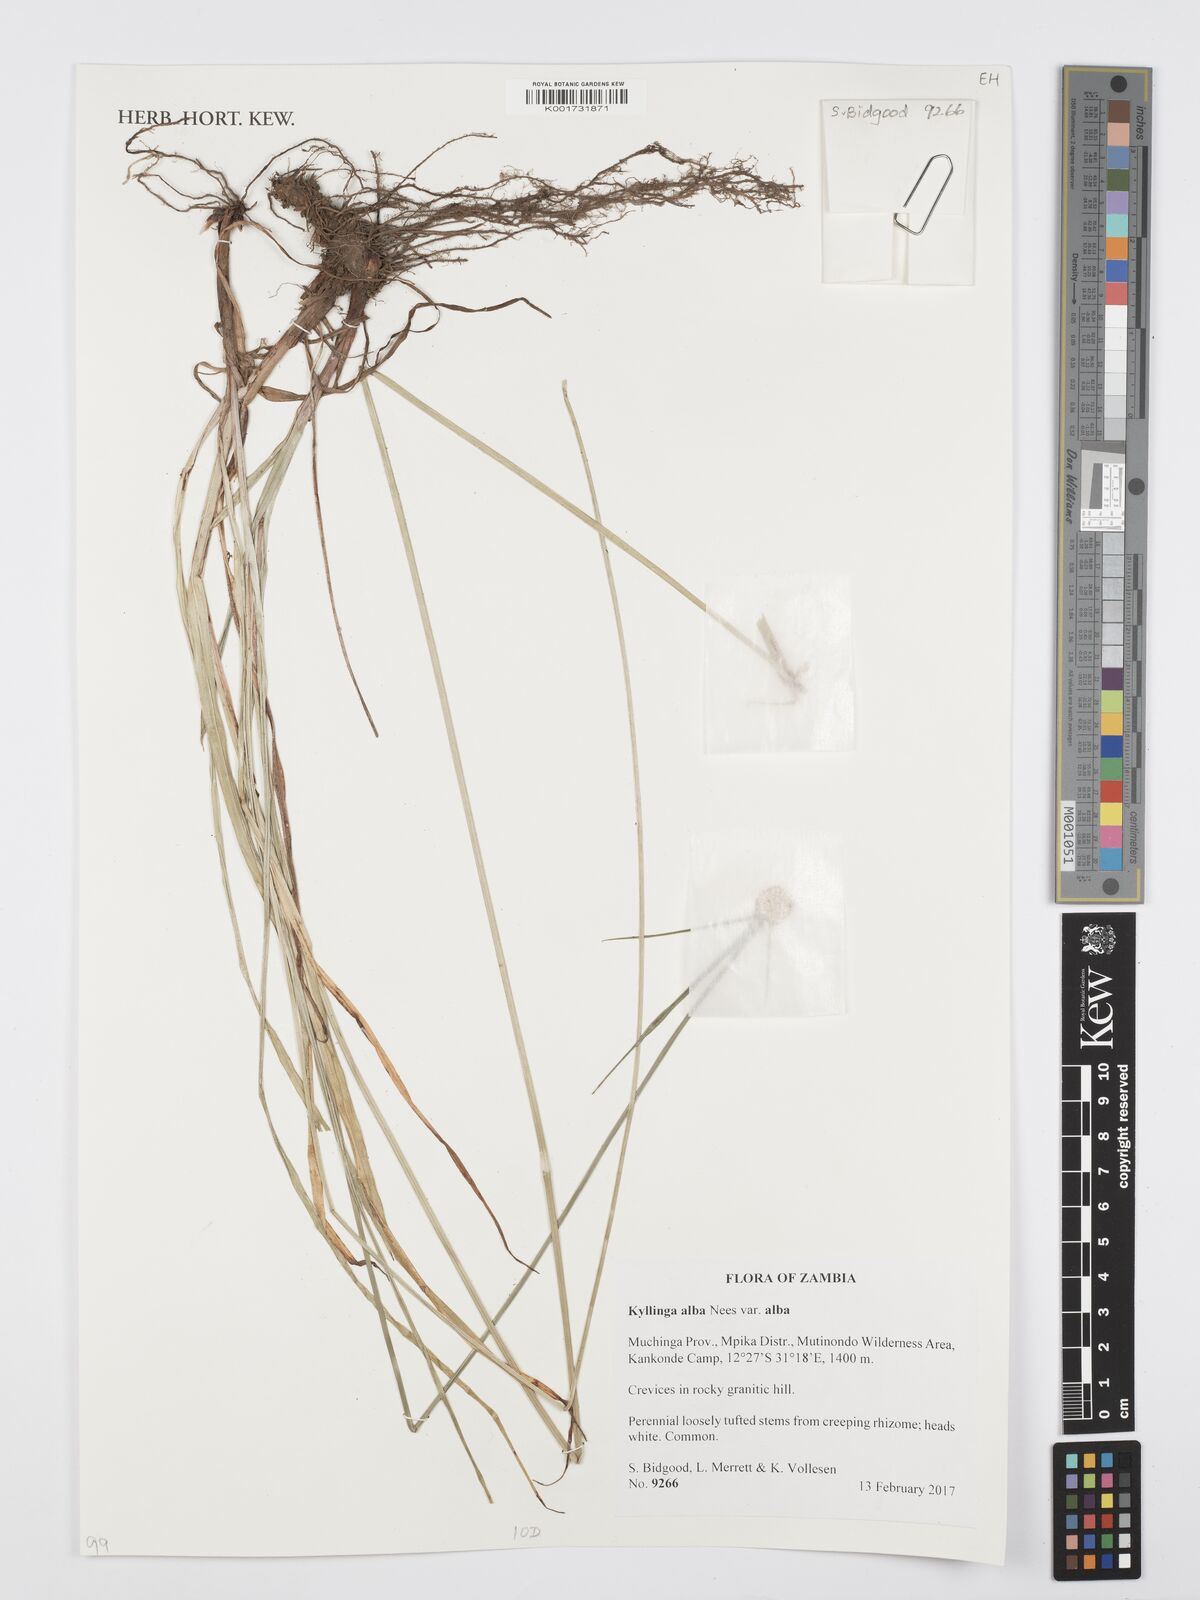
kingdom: Plantae
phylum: Tracheophyta
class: Liliopsida
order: Poales
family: Cyperaceae
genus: Cyperus
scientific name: Cyperus rukwanus
